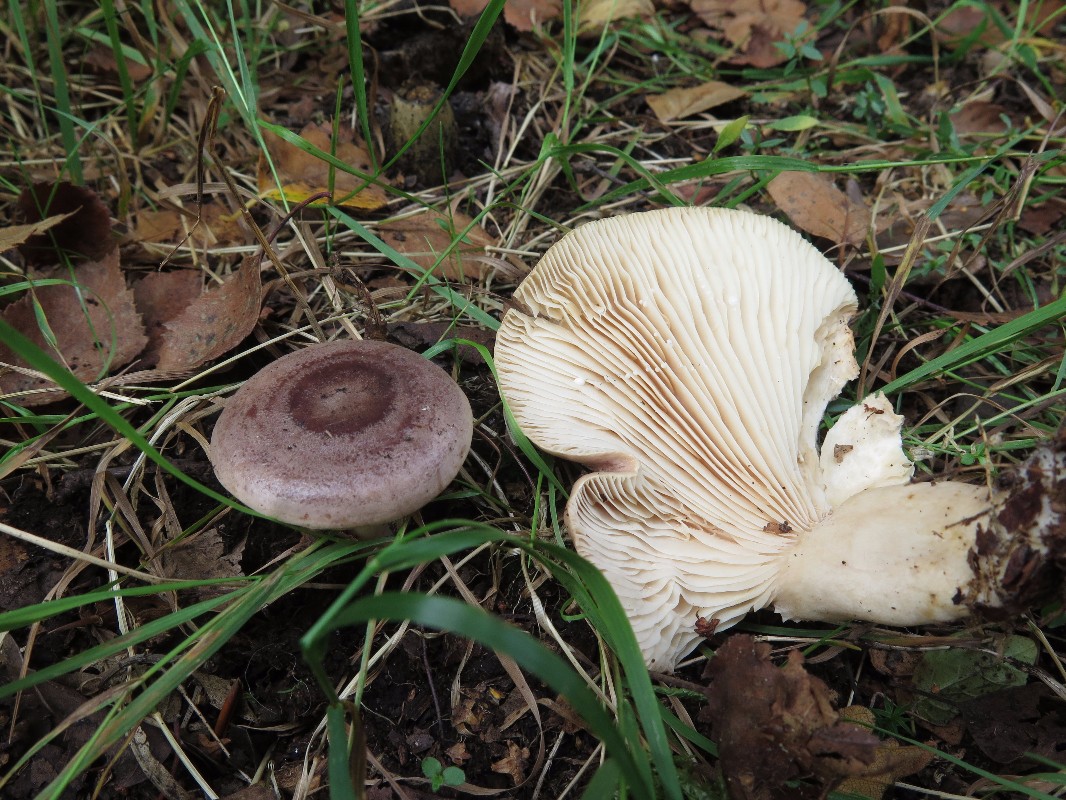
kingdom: Fungi
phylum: Basidiomycota
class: Agaricomycetes
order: Russulales
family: Russulaceae
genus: Lactarius
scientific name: Lactarius trivialis
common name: nordisk mælkehat
